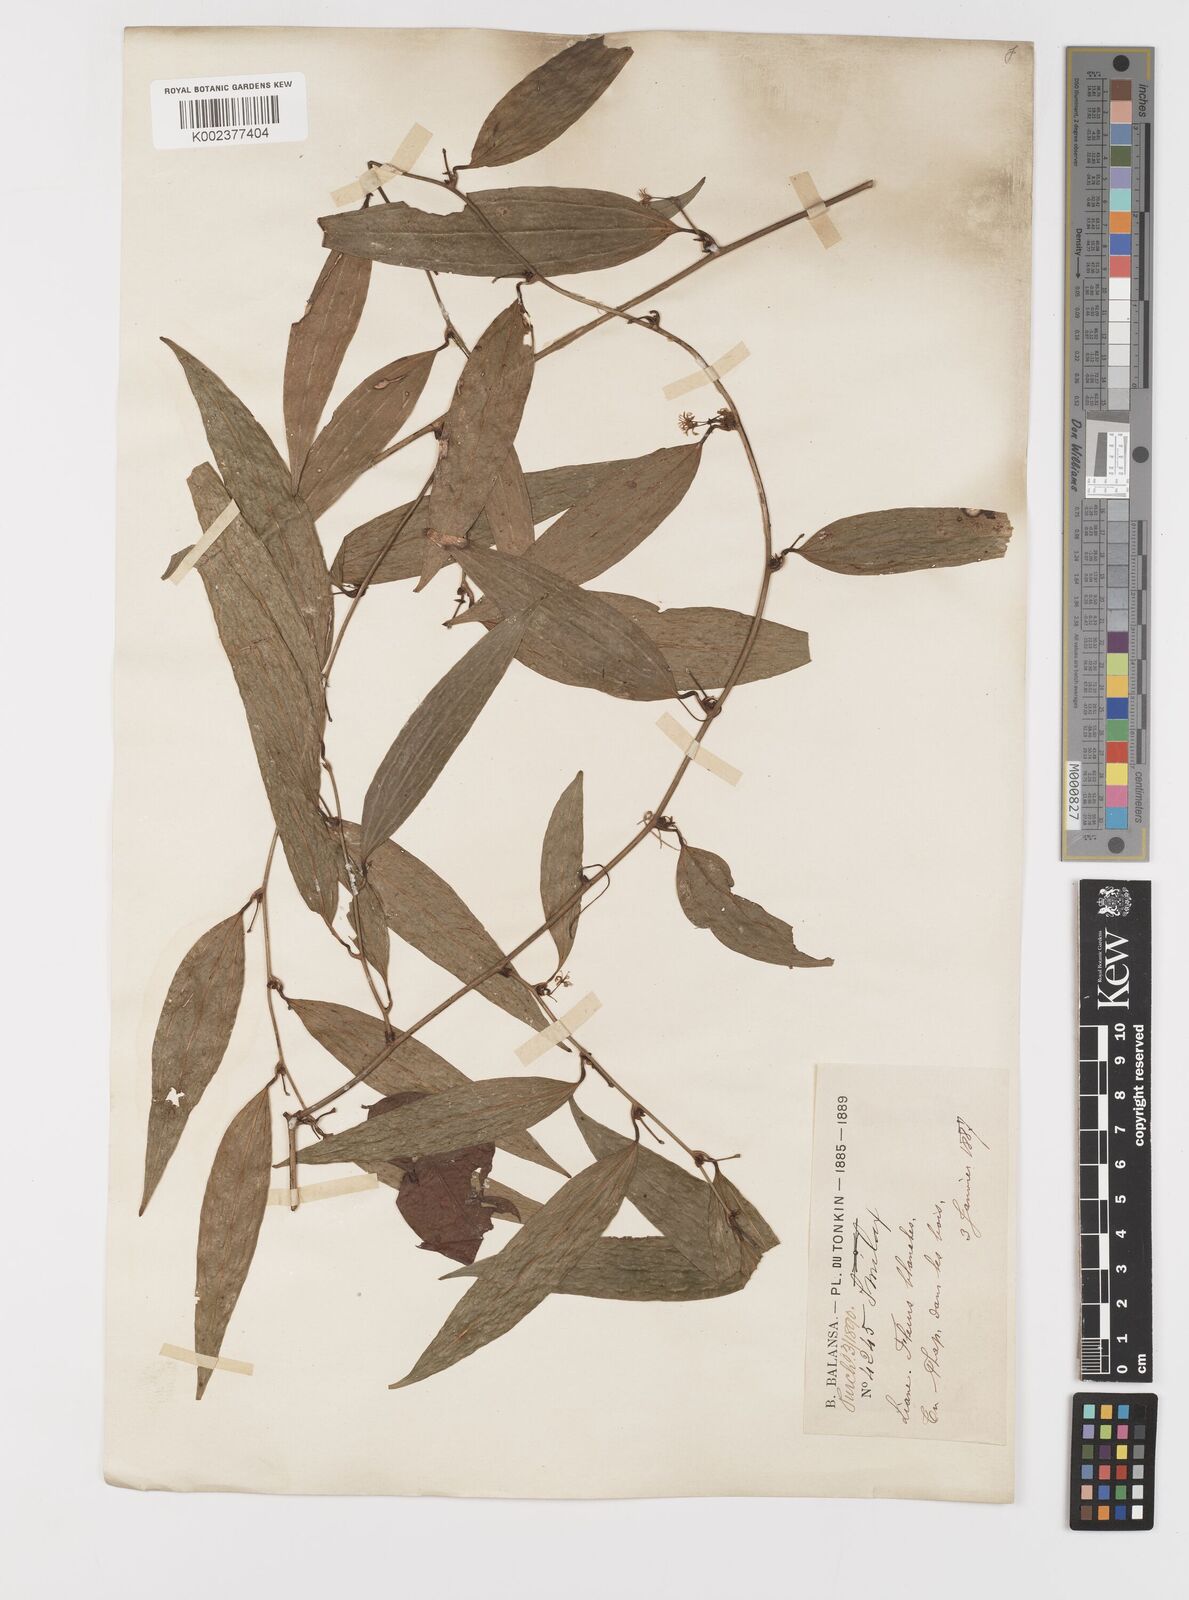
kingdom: Plantae
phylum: Tracheophyta
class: Liliopsida
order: Liliales
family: Smilacaceae
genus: Smilax
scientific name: Smilax
